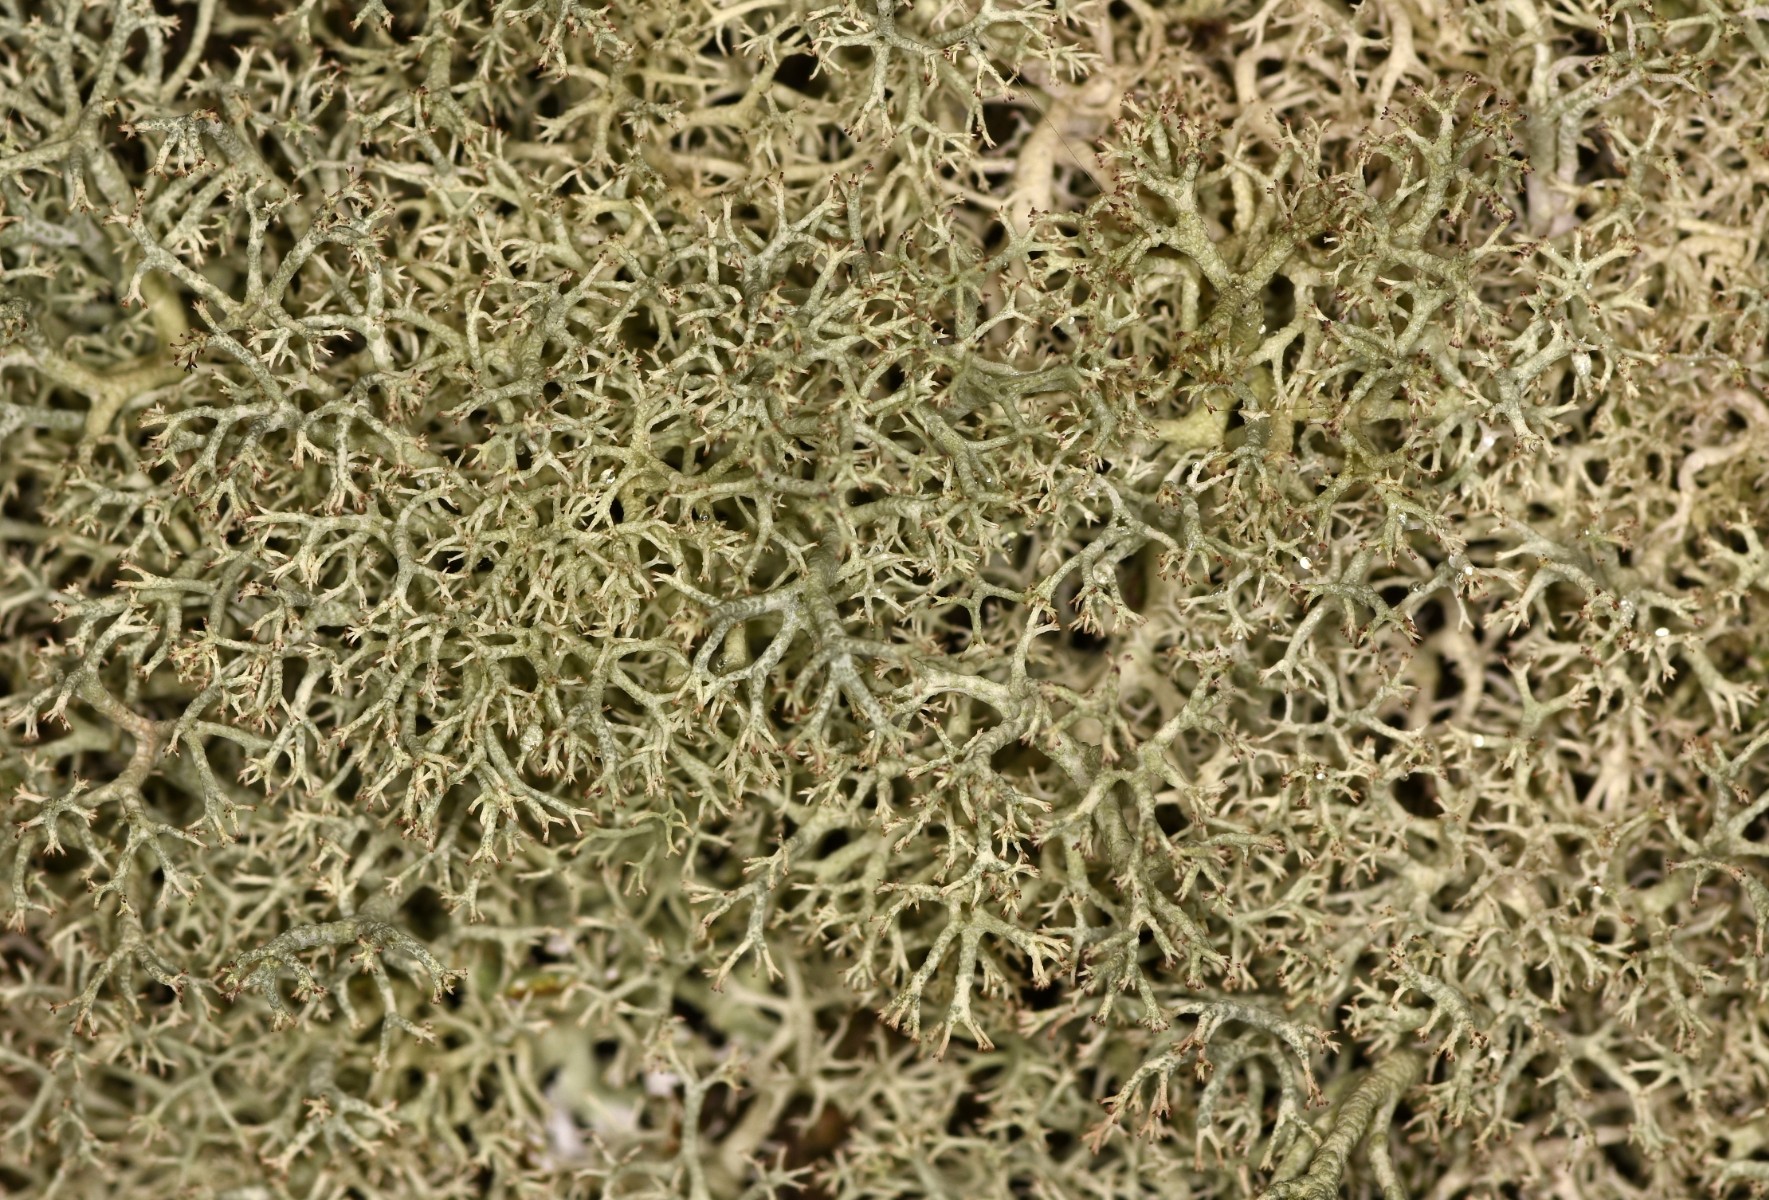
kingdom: Fungi
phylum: Ascomycota
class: Lecanoromycetes
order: Lecanorales
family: Cladoniaceae
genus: Cladonia
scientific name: Cladonia portentosa
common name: hede-rensdyrlav
